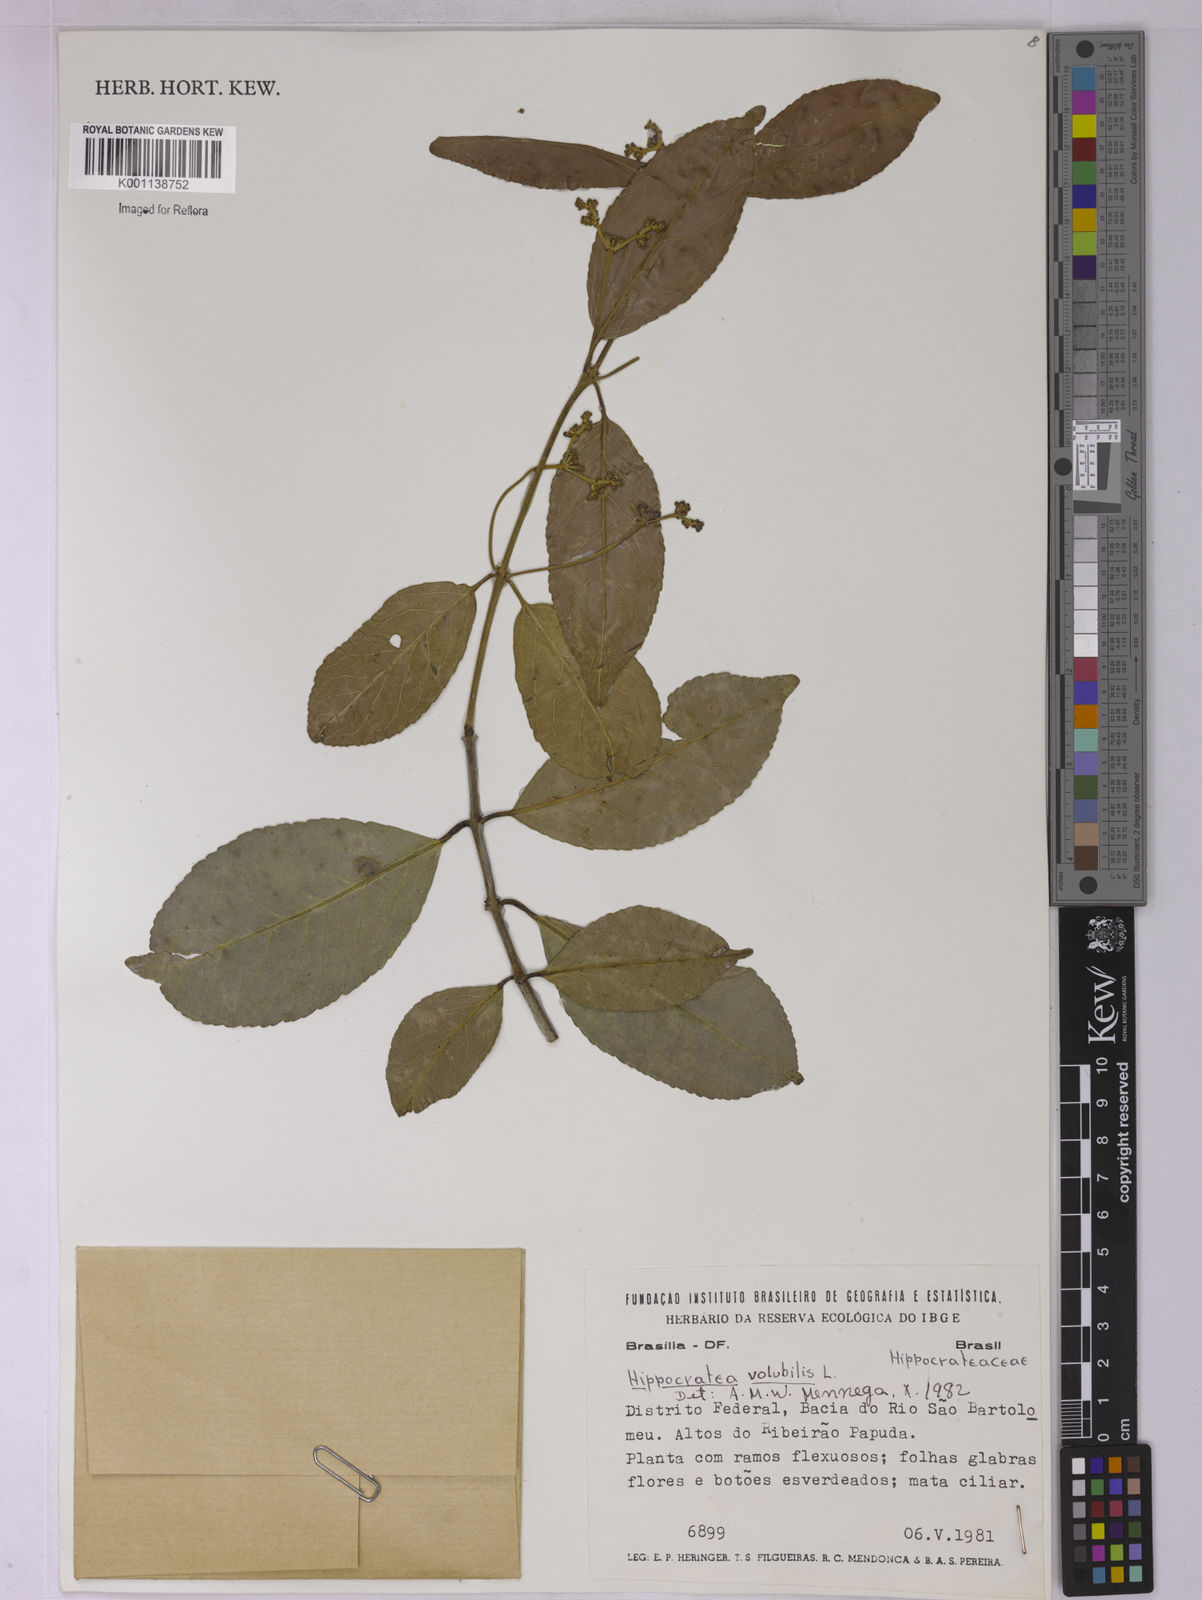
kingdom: Plantae
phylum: Tracheophyta
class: Magnoliopsida
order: Celastrales
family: Celastraceae
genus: Hippocratea
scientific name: Hippocratea volubilis
